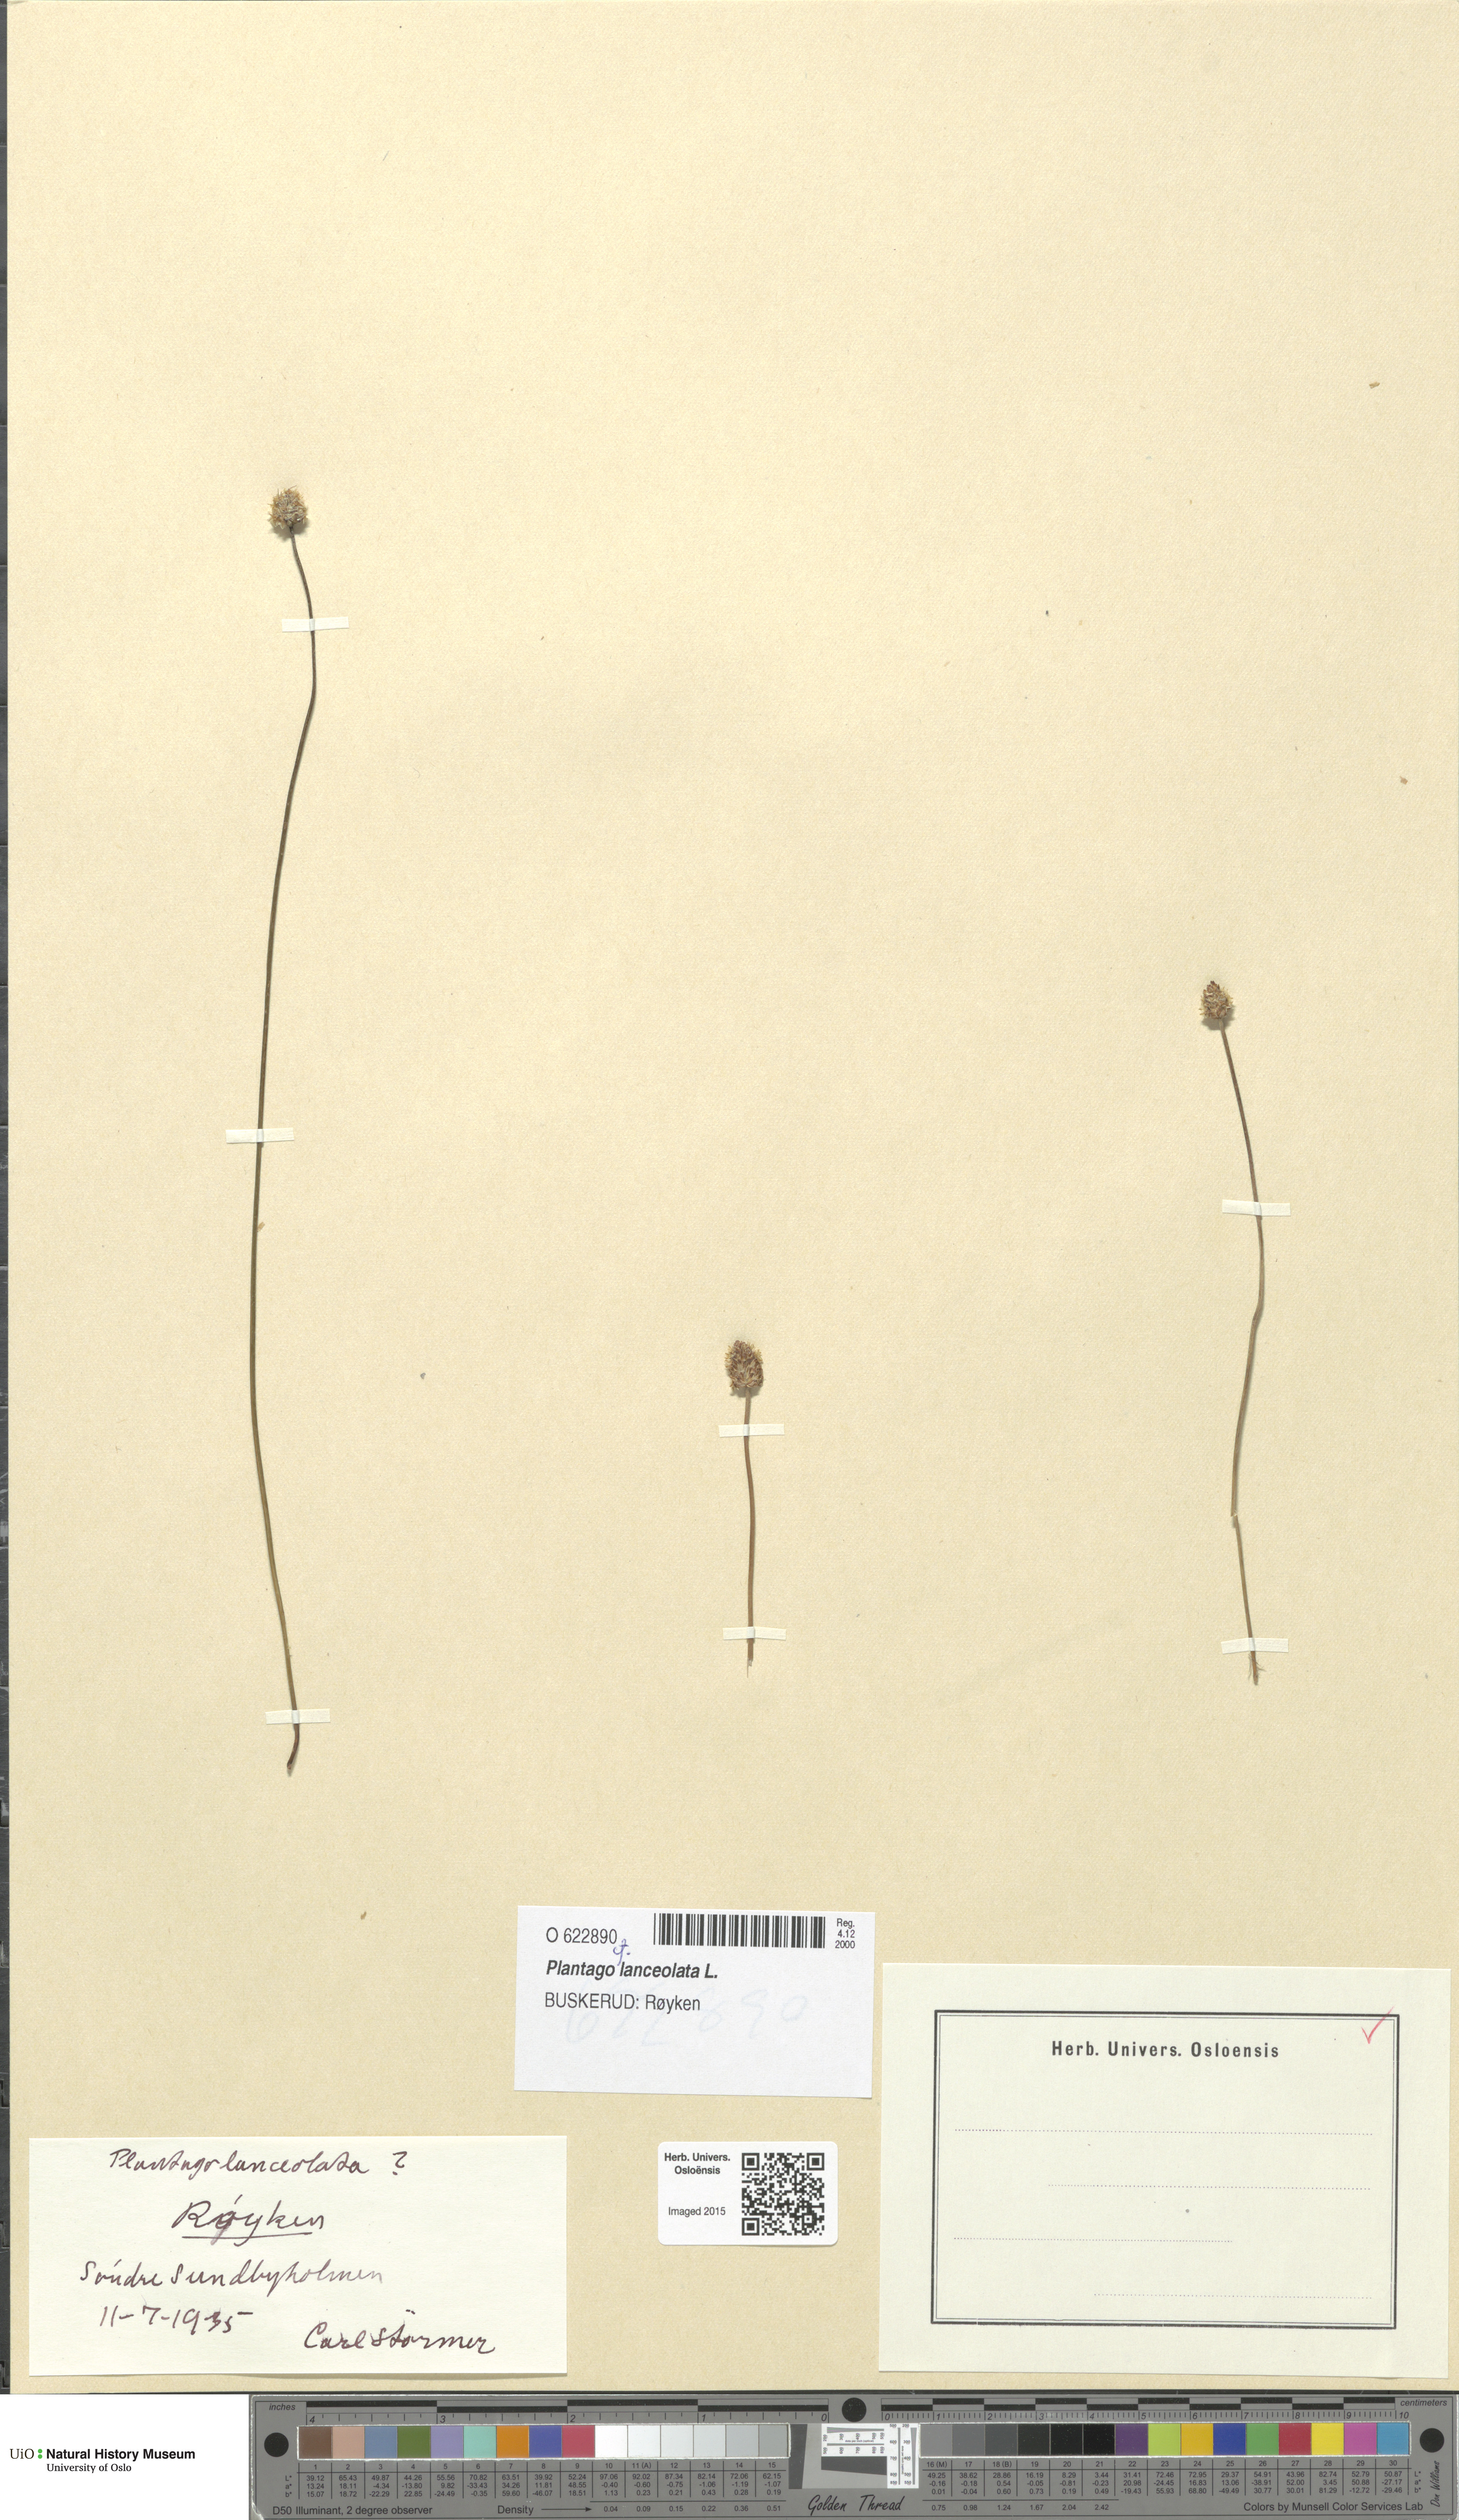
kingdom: Plantae
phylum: Tracheophyta
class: Magnoliopsida
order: Lamiales
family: Plantaginaceae
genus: Plantago
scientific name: Plantago lanceolata
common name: Ribwort plantain
